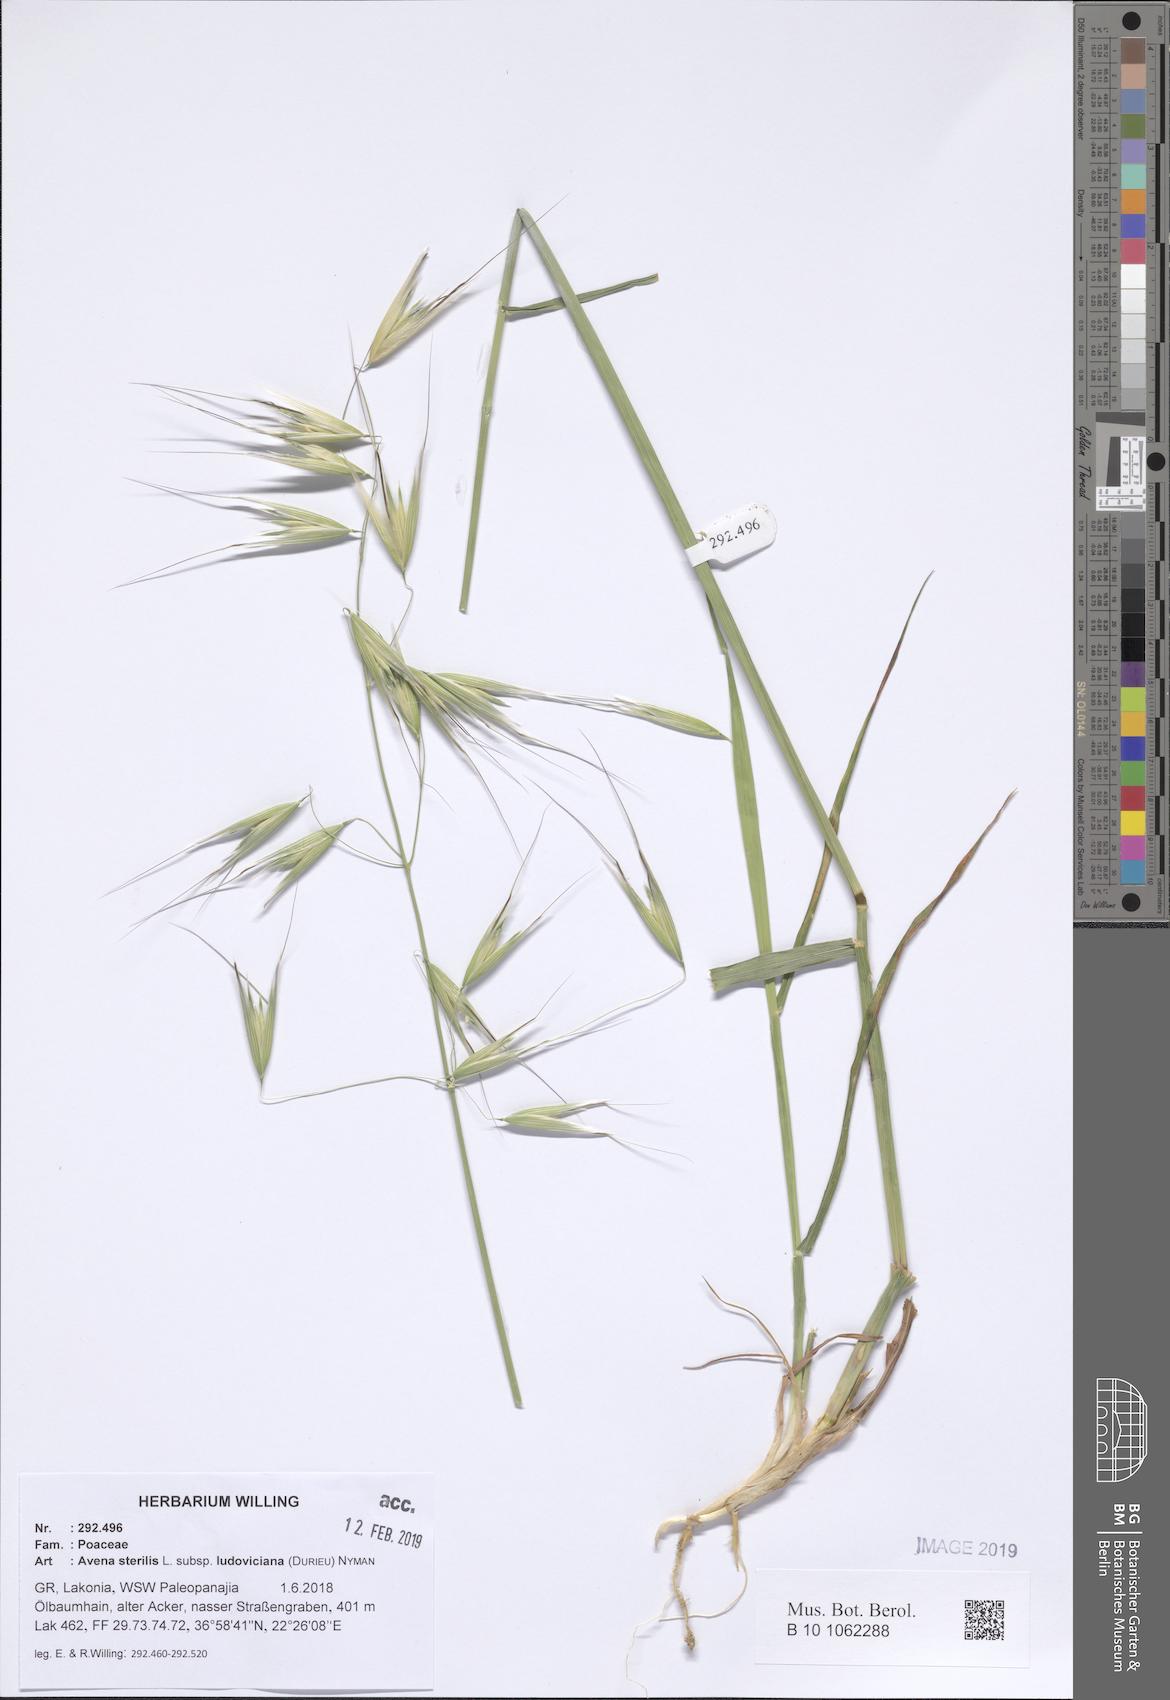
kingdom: Plantae
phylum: Tracheophyta
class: Liliopsida
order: Poales
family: Poaceae
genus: Avena
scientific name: Avena sterilis
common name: Animated oat
